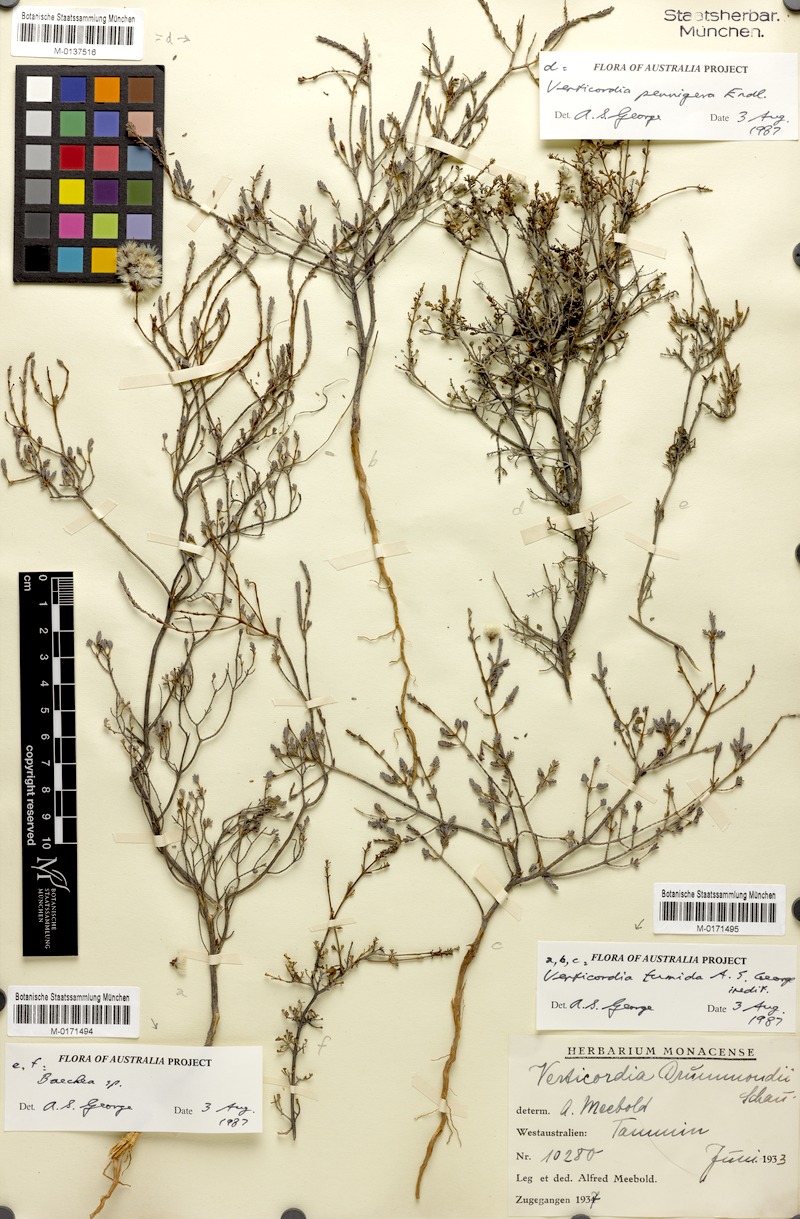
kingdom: Plantae
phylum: Tracheophyta
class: Magnoliopsida
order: Myrtales
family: Myrtaceae
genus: Baeckea
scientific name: Baeckea
